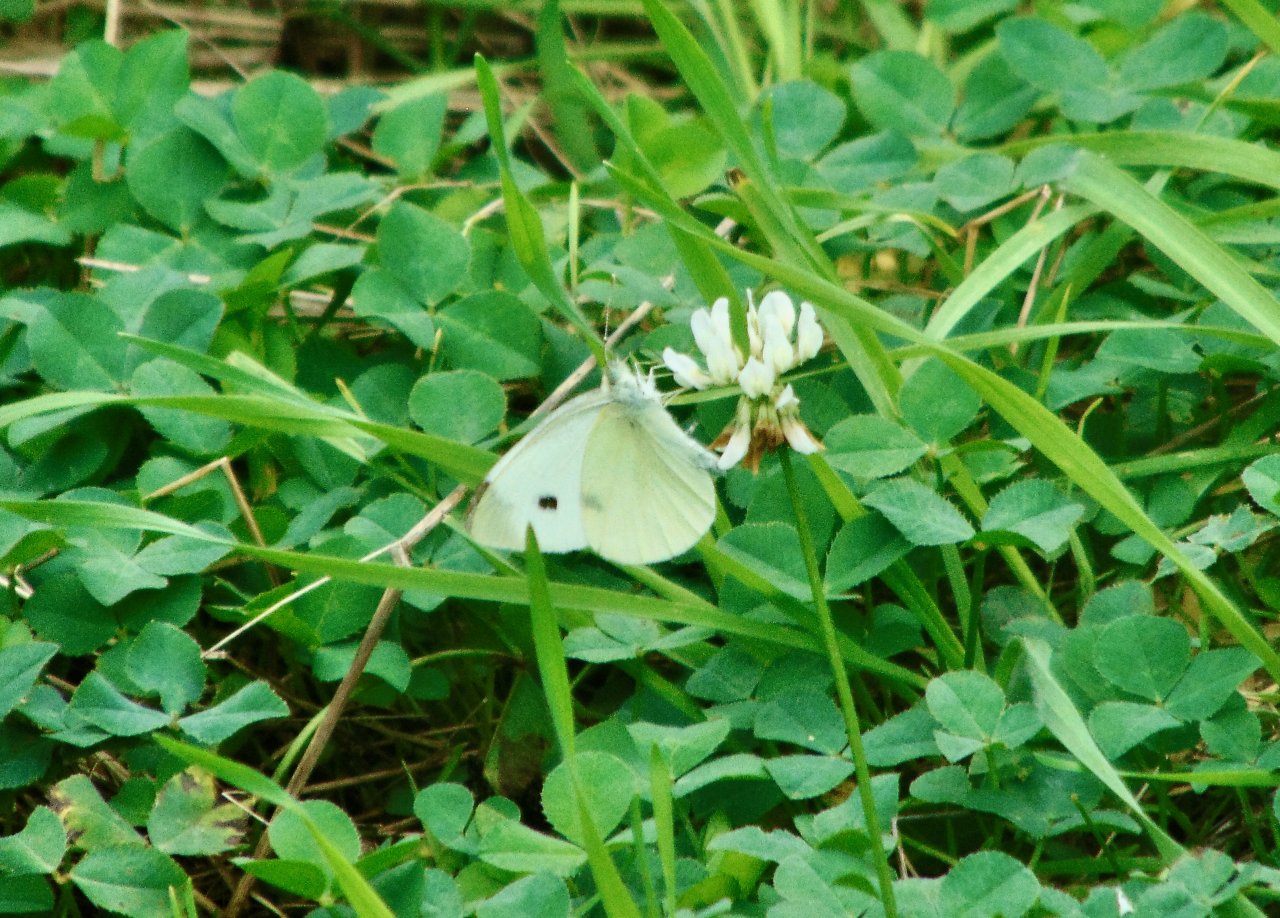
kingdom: Animalia
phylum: Arthropoda
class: Insecta
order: Lepidoptera
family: Pieridae
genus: Pieris
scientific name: Pieris rapae
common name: Cabbage White
